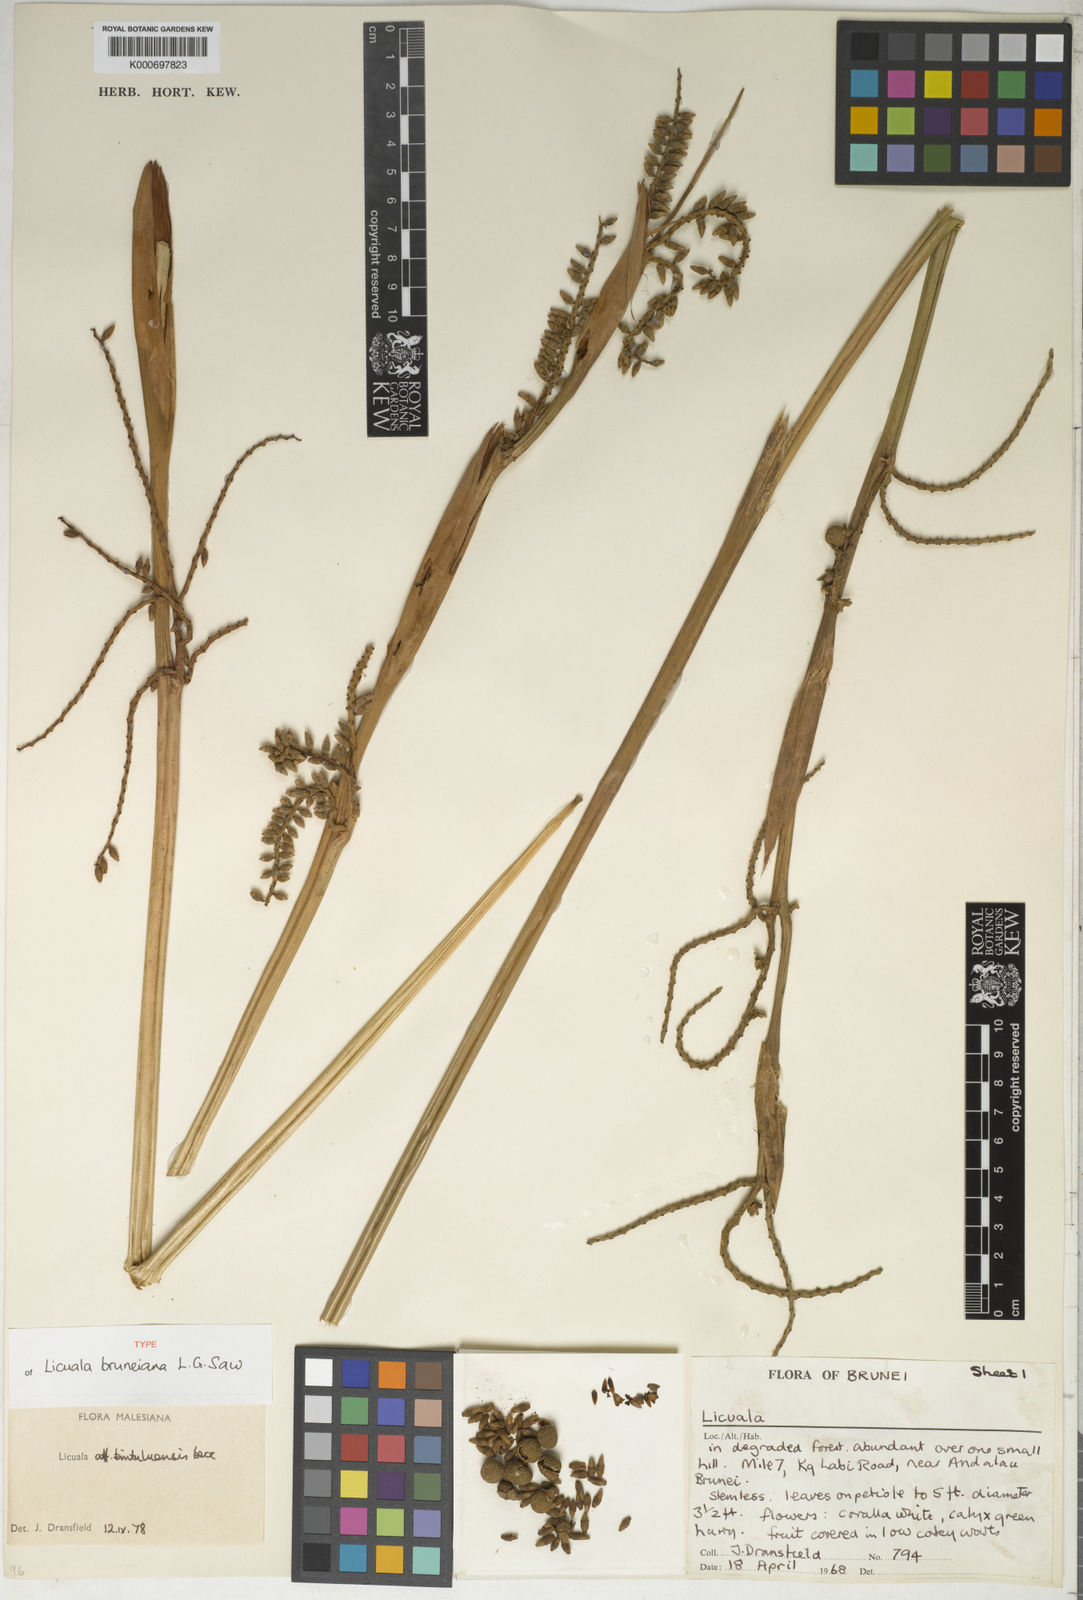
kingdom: Plantae
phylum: Tracheophyta
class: Liliopsida
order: Arecales
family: Arecaceae
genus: Licuala
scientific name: Licuala bruneiana
